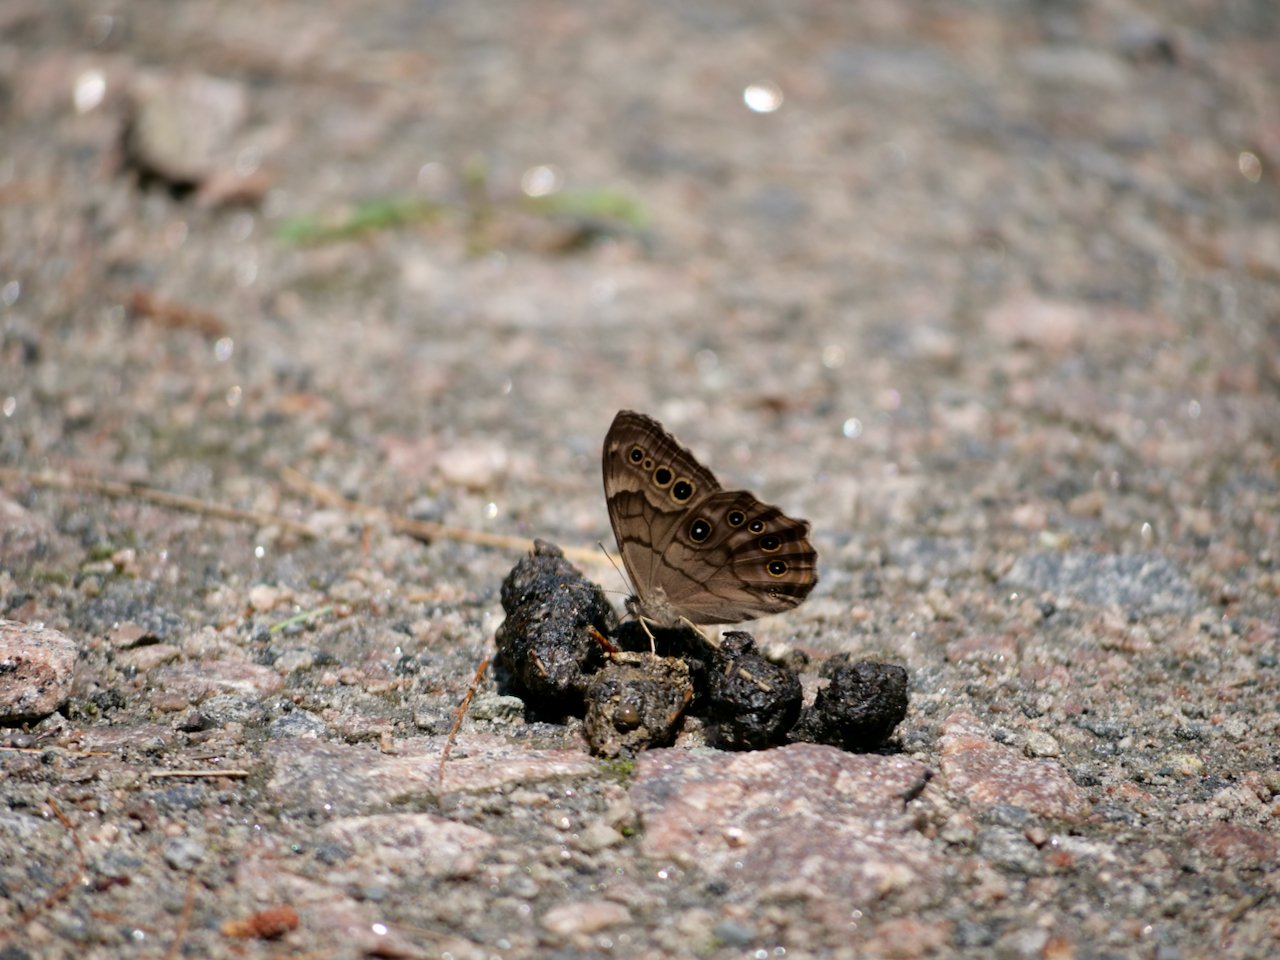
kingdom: Animalia
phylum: Arthropoda
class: Insecta
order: Lepidoptera
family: Nymphalidae
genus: Lethe
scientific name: Lethe anthedon
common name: Northern Pearly-Eye
